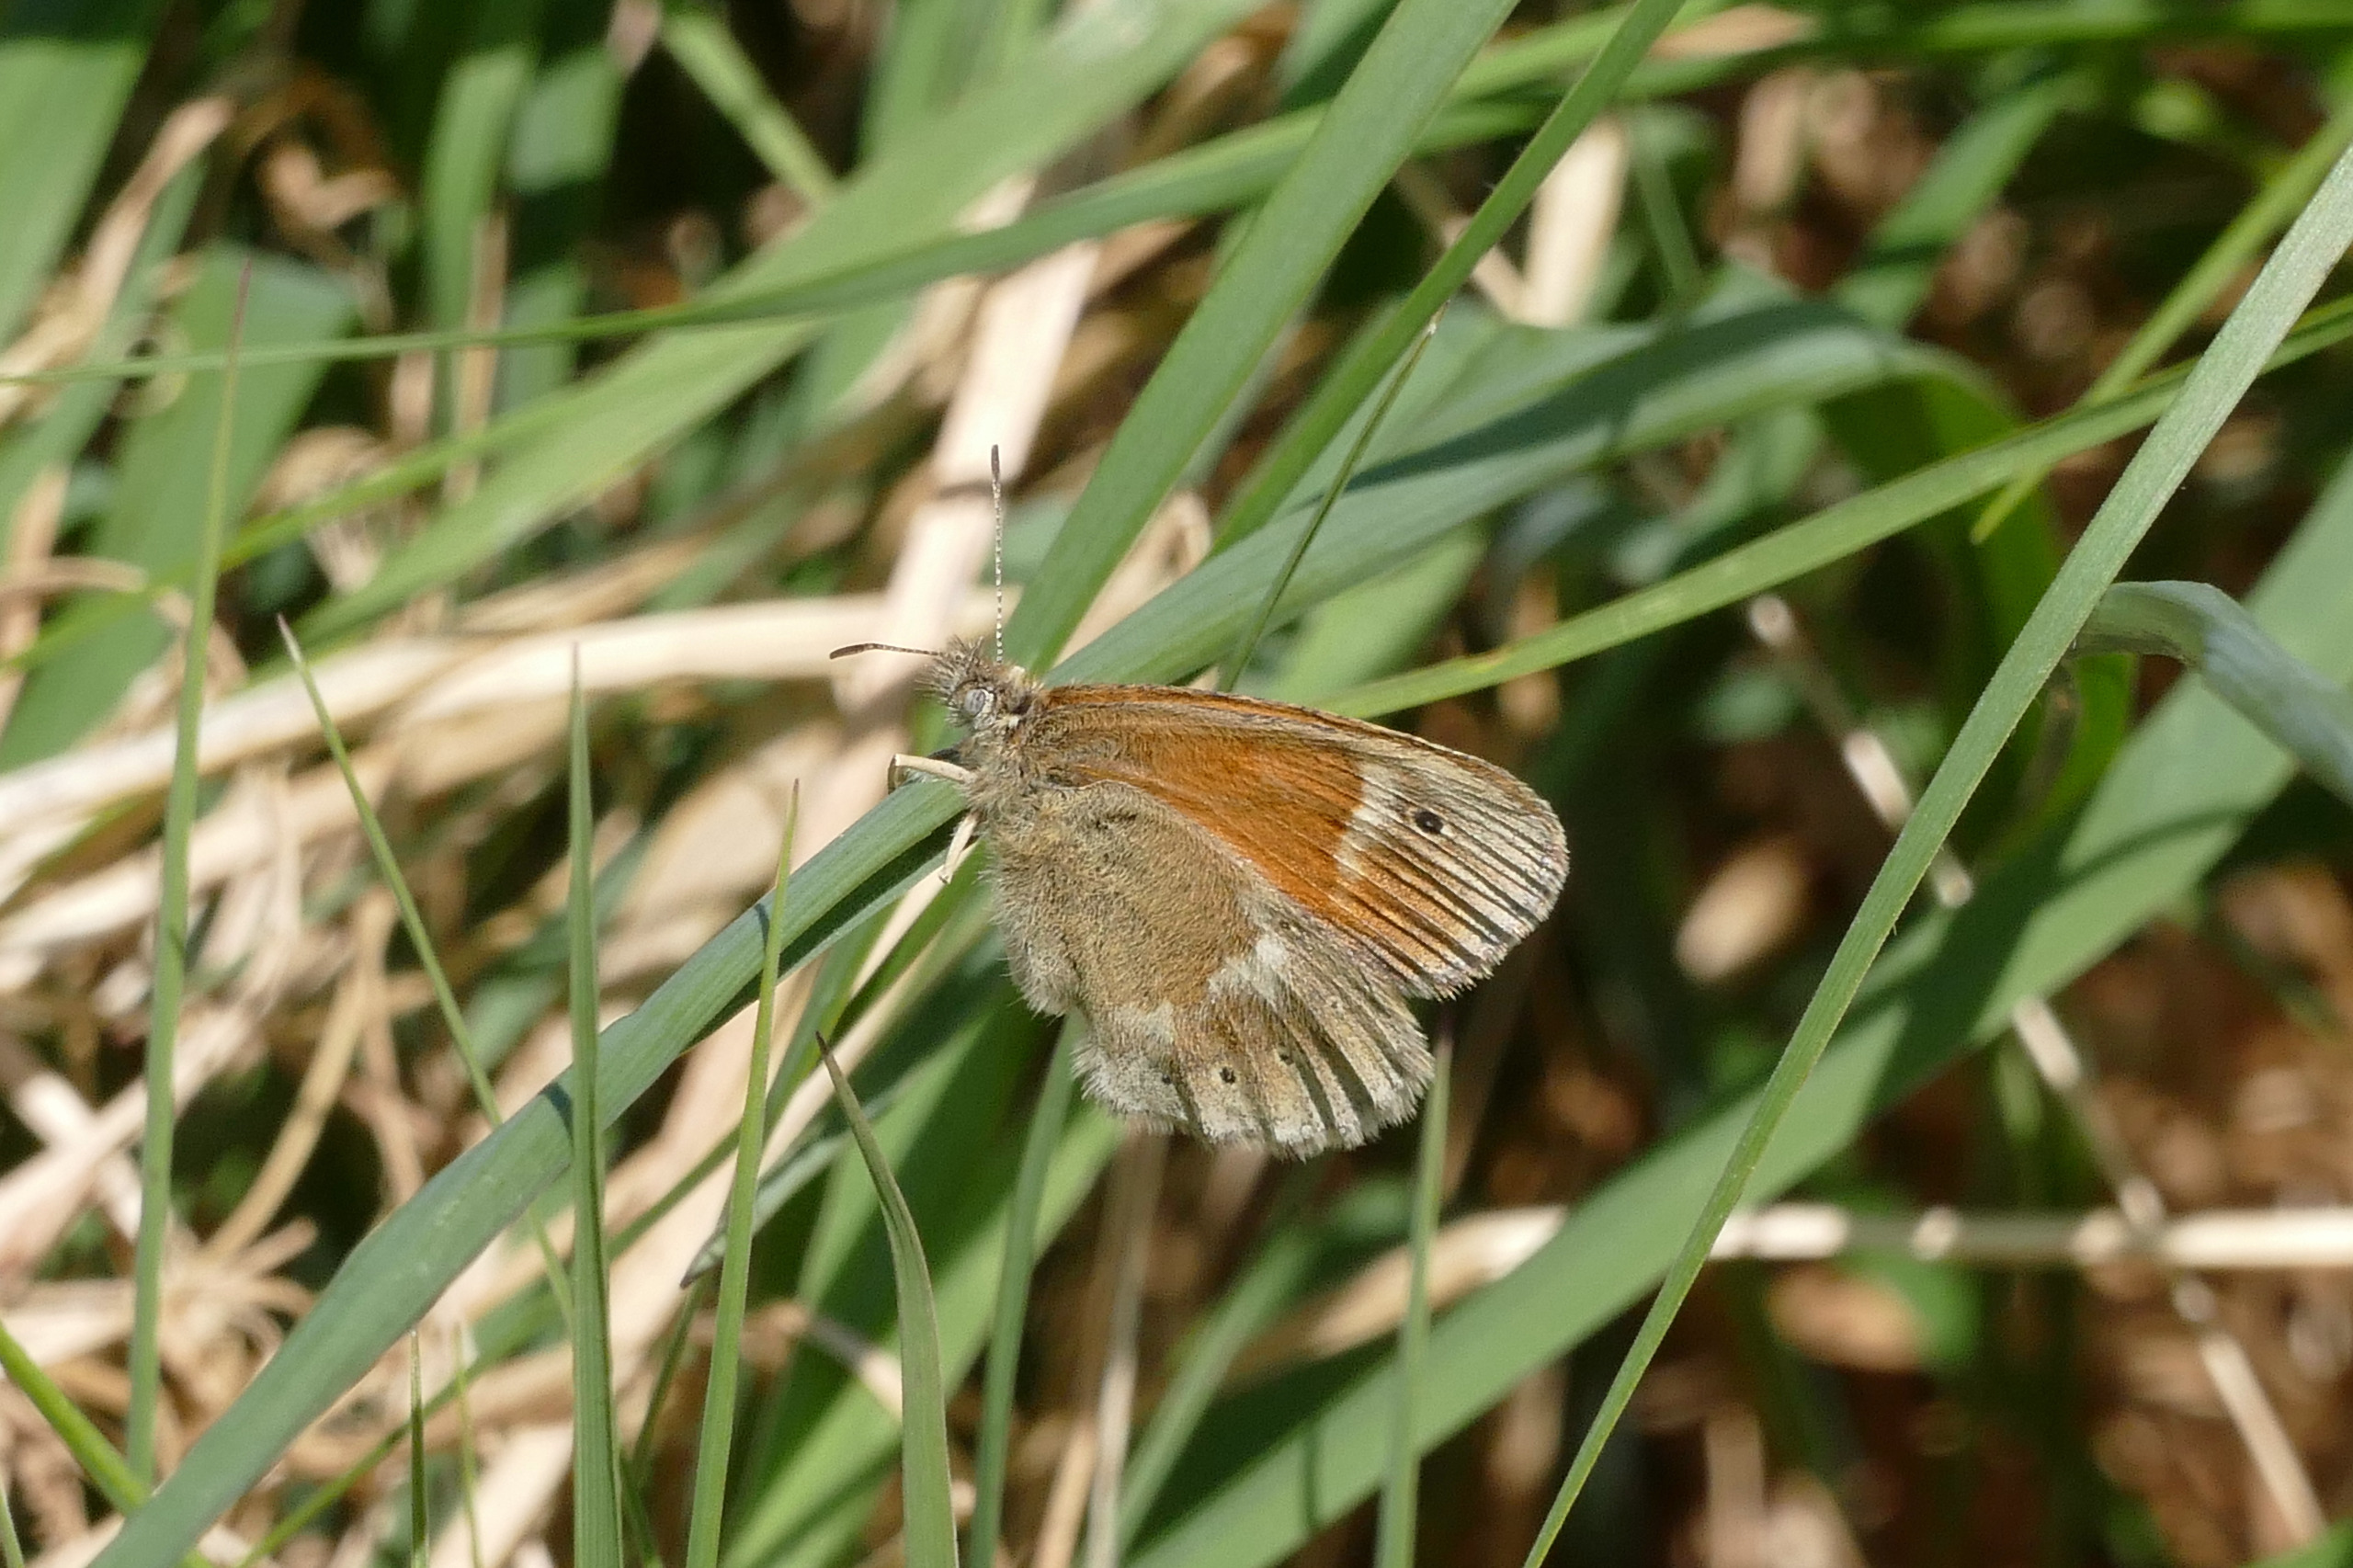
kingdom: Animalia
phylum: Arthropoda
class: Insecta
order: Lepidoptera
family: Nymphalidae
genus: Coenonympha
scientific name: Coenonympha tullia
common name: Moserandøje
